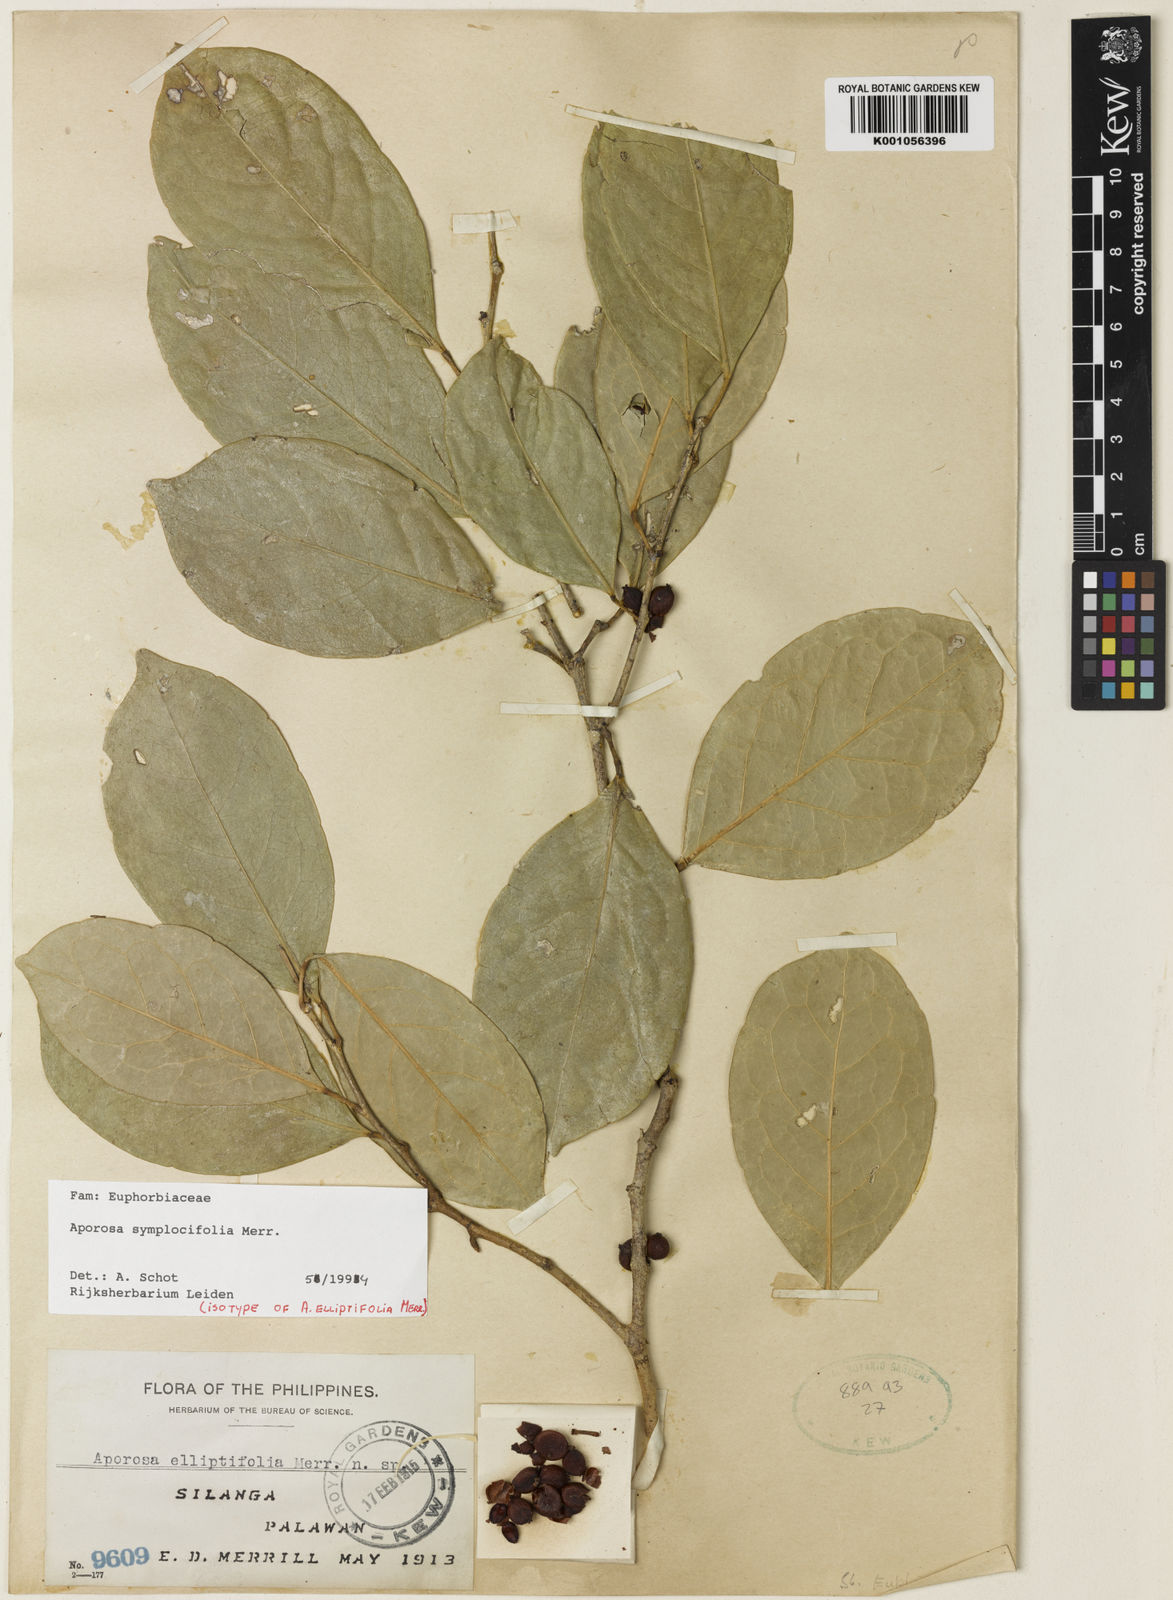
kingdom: Plantae
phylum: Tracheophyta
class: Magnoliopsida
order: Malpighiales
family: Phyllanthaceae
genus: Aporosa
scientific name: Aporosa symplocifolia
